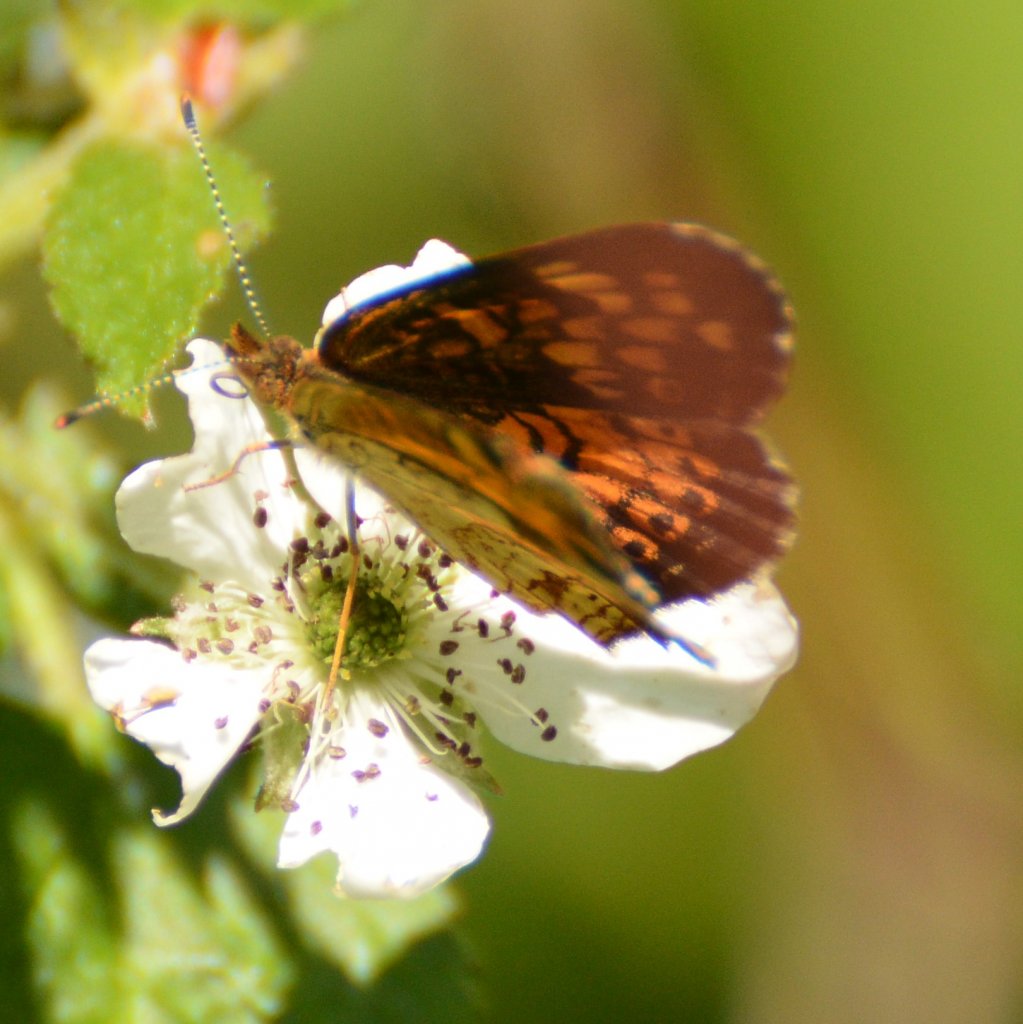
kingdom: Animalia
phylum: Arthropoda
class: Insecta
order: Lepidoptera
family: Nymphalidae
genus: Phyciodes
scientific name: Phyciodes tharos
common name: Northern Crescent
